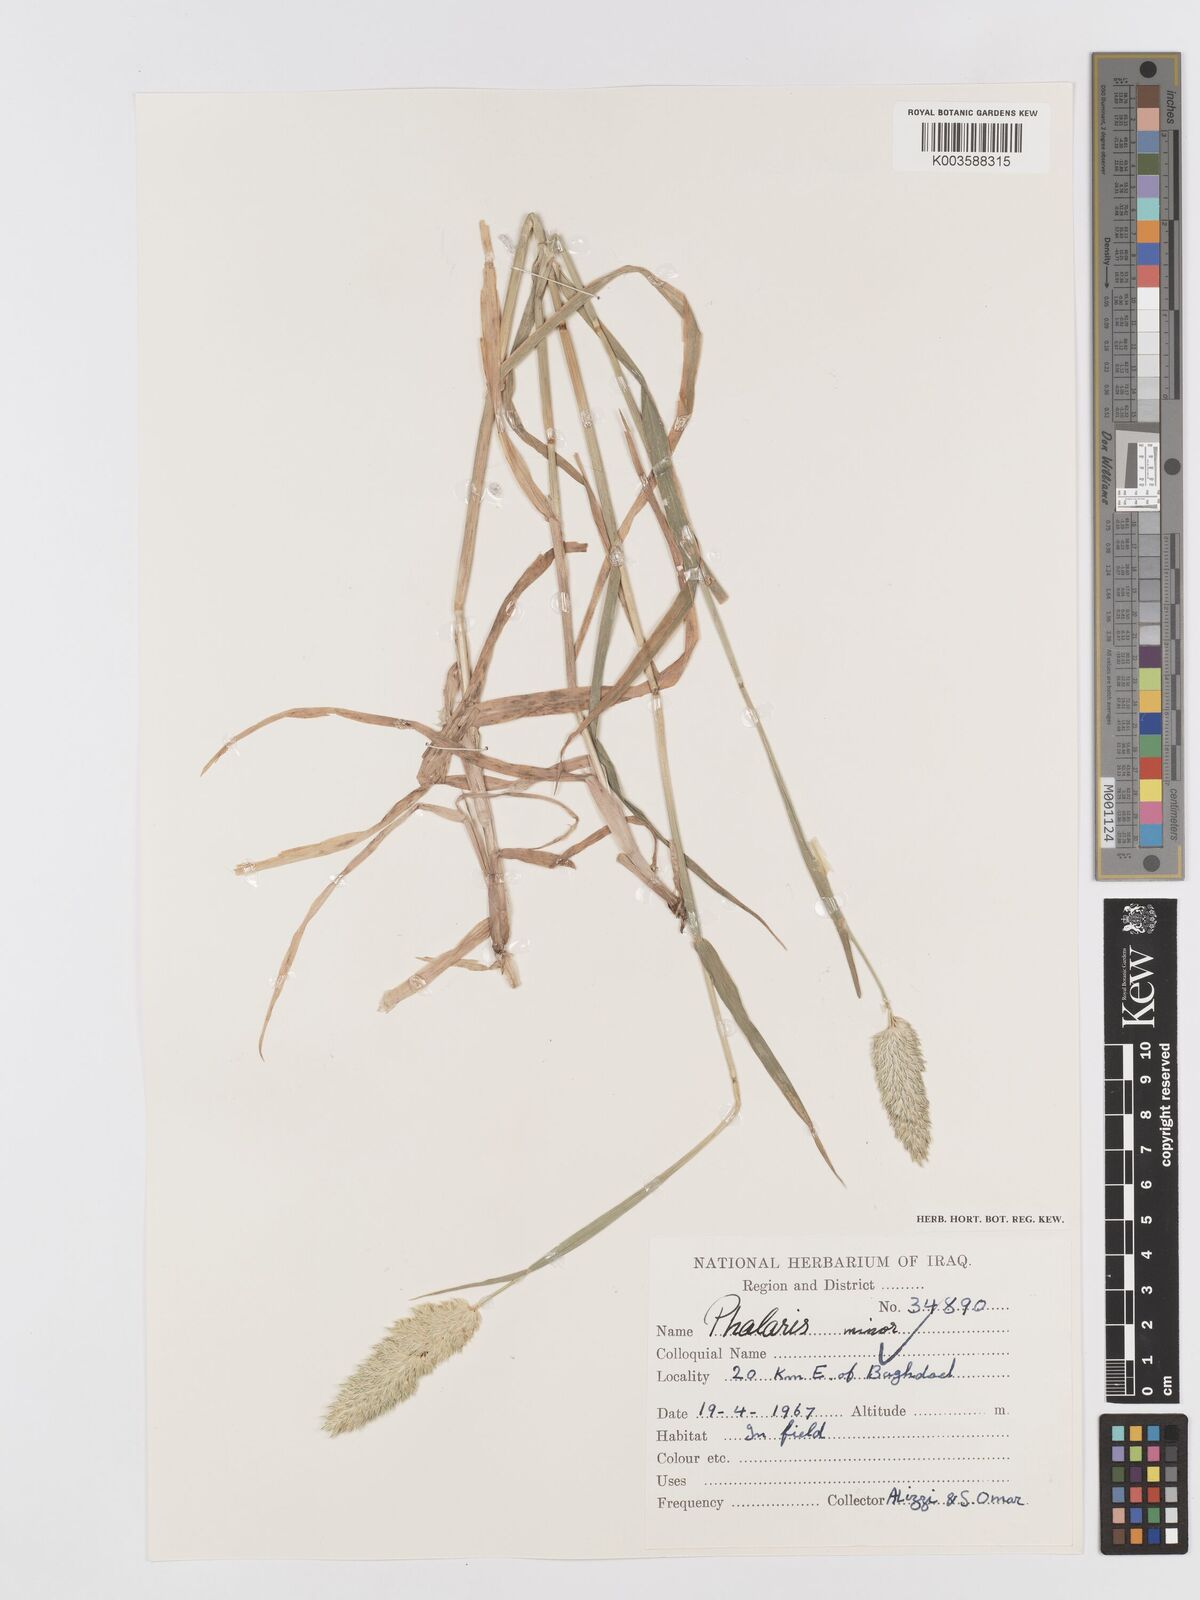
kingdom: Plantae
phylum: Tracheophyta
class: Liliopsida
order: Poales
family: Poaceae
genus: Phalaris
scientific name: Phalaris minor
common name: Littleseed canarygrass
